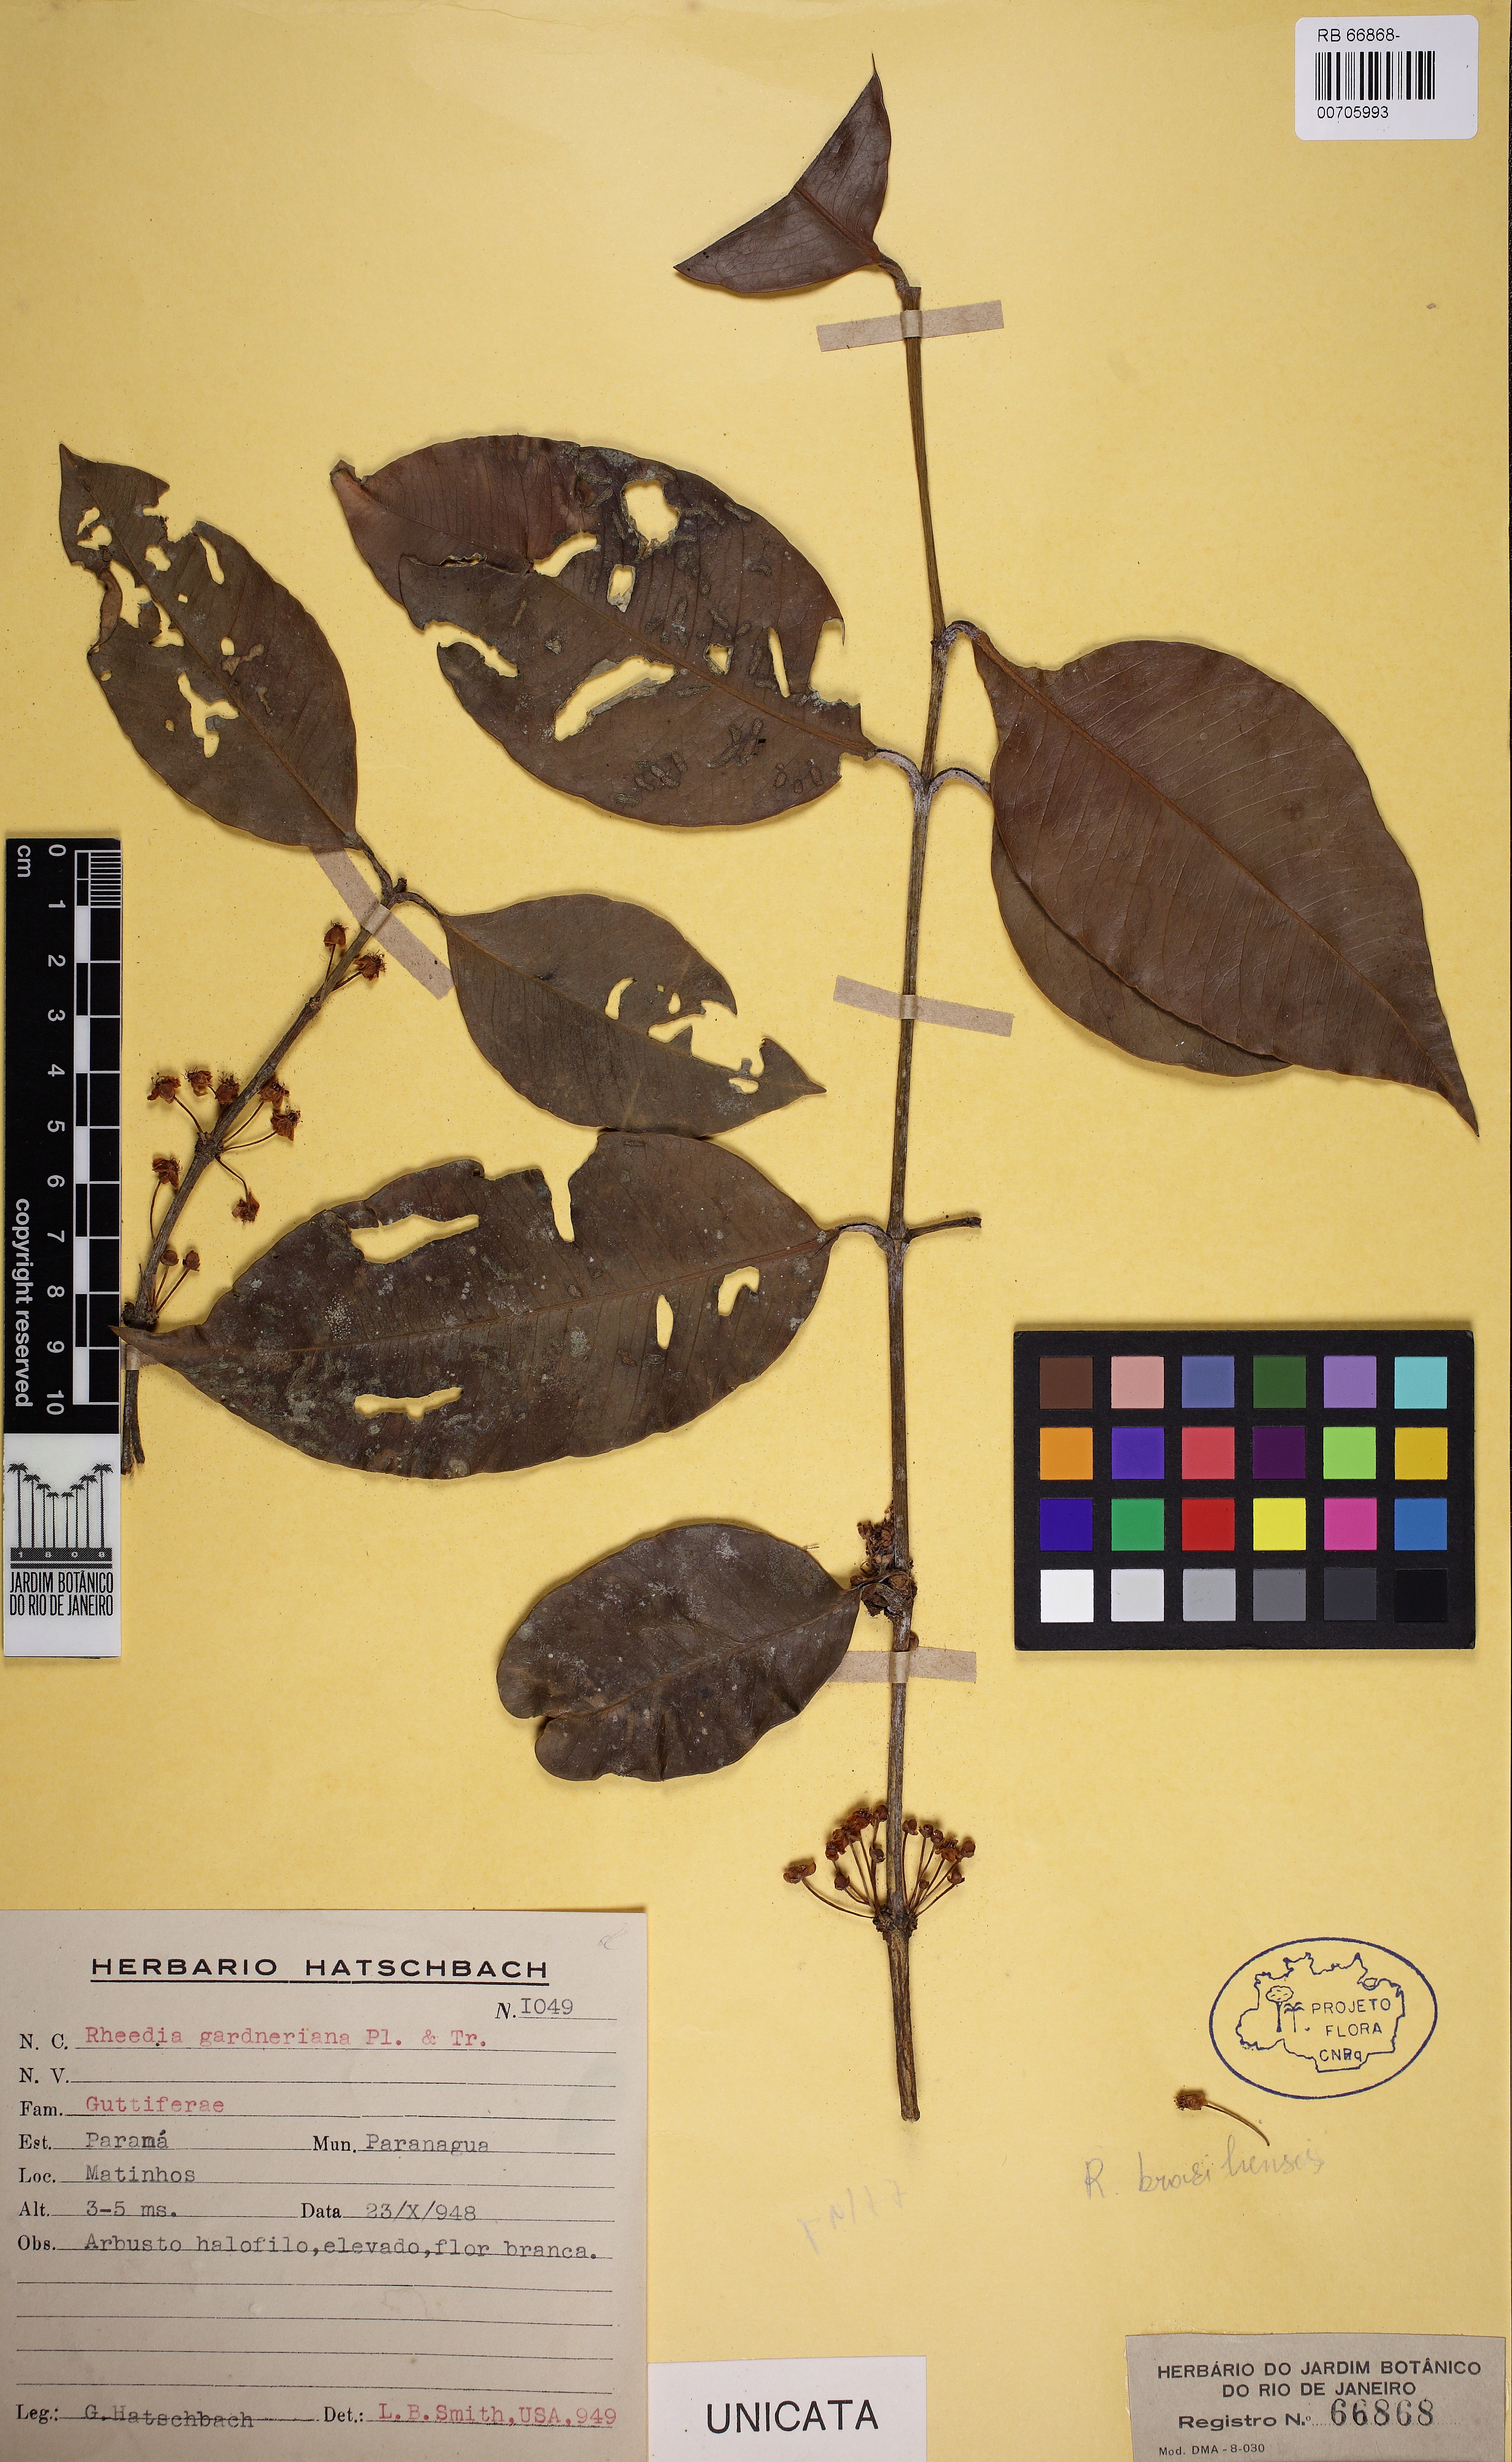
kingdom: Plantae
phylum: Tracheophyta
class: Magnoliopsida
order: Malpighiales
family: Clusiaceae
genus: Garcinia
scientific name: Garcinia gardneriana
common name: Achacha
